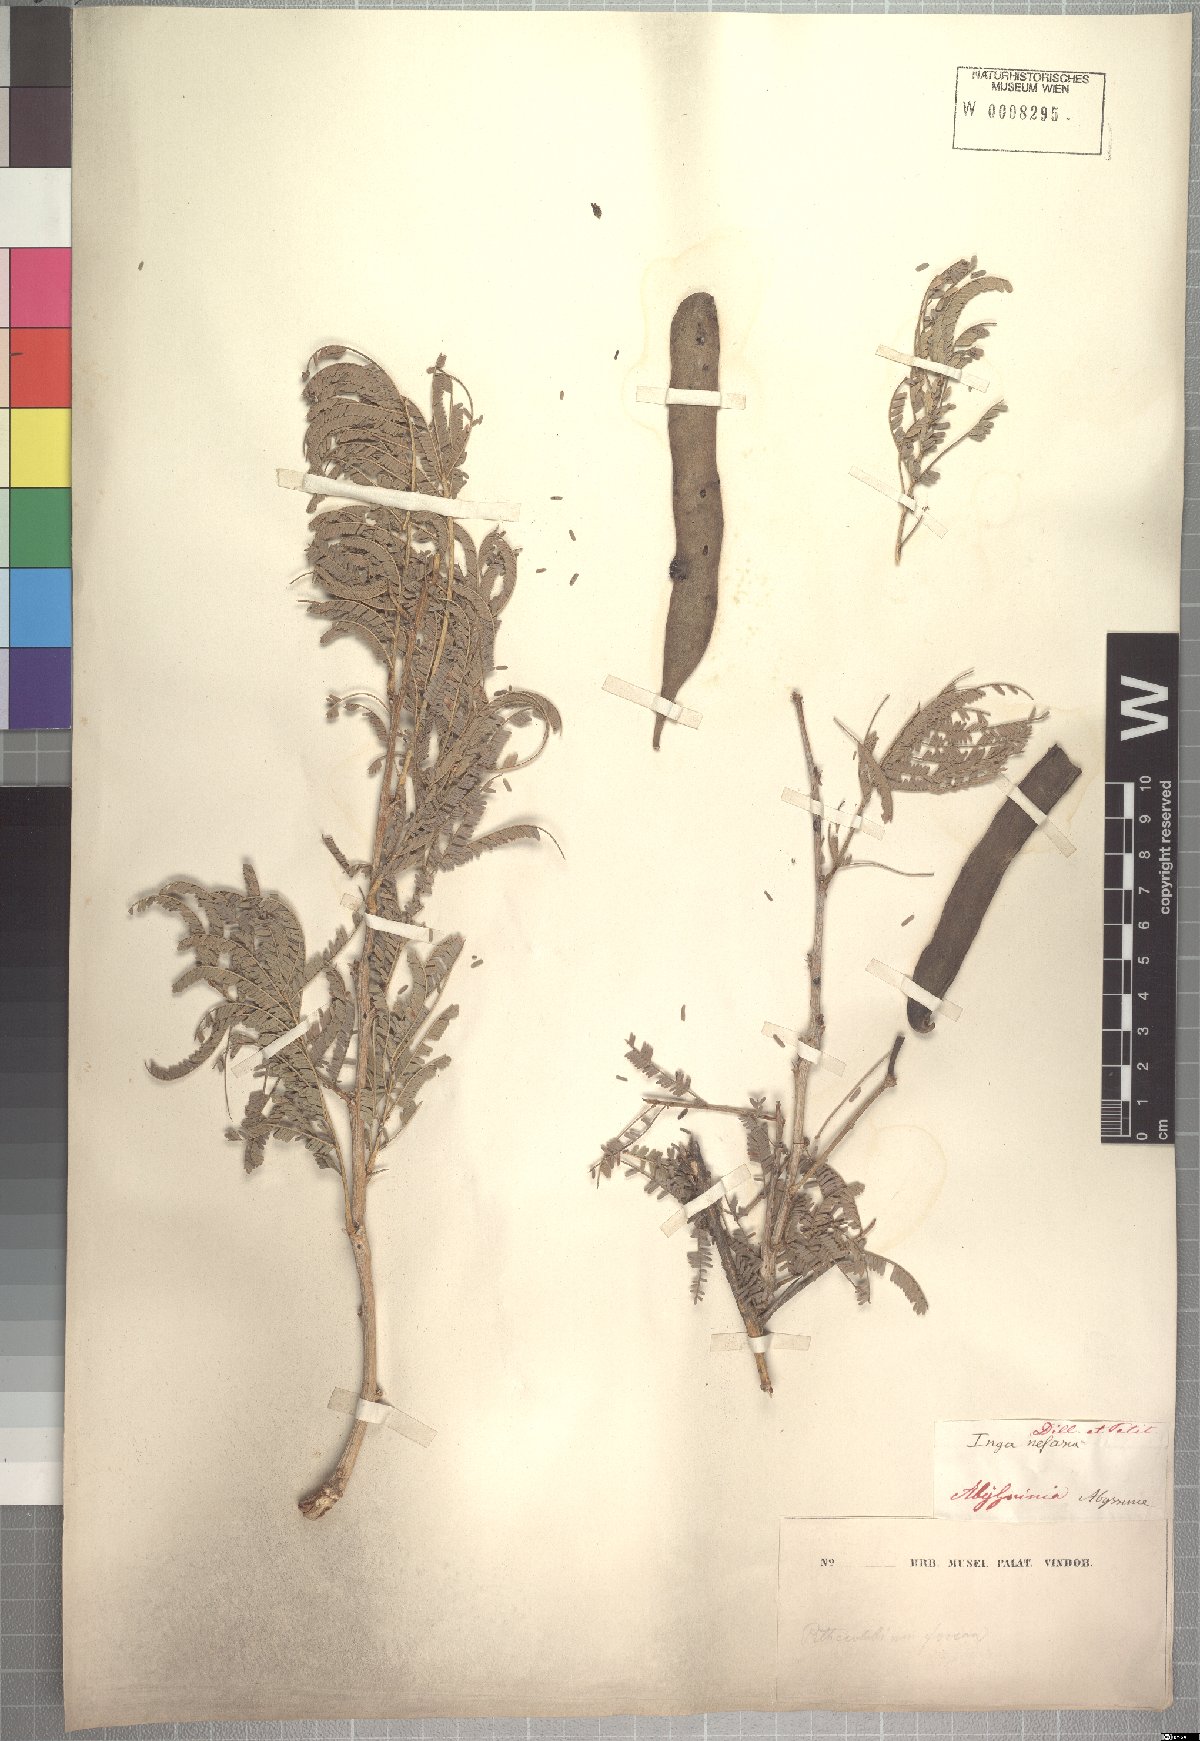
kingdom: Plantae
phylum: Tracheophyta
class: Magnoliopsida
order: Fabales
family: Fabaceae
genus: Vachellia
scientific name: Vachellia sieberiana
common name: Flat-topped thorn
